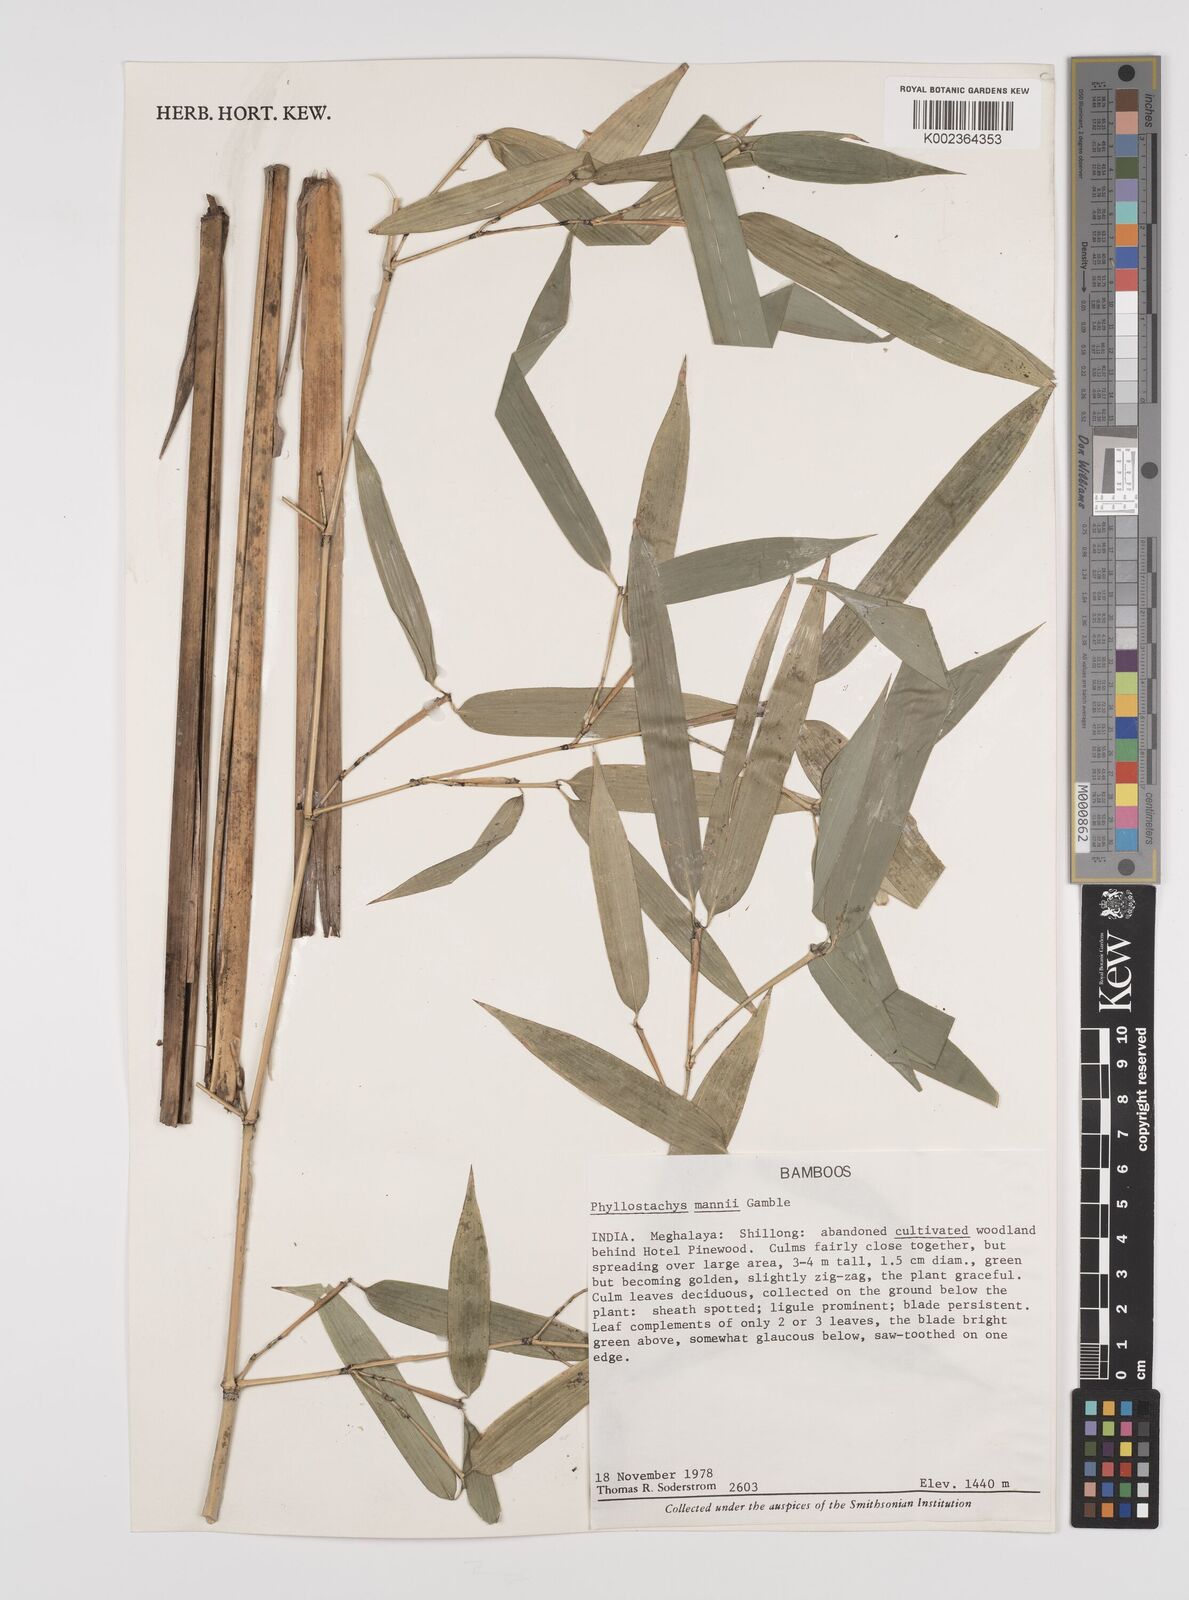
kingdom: Plantae
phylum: Tracheophyta
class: Liliopsida
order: Poales
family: Poaceae
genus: Phyllostachys
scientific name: Phyllostachys mannii
